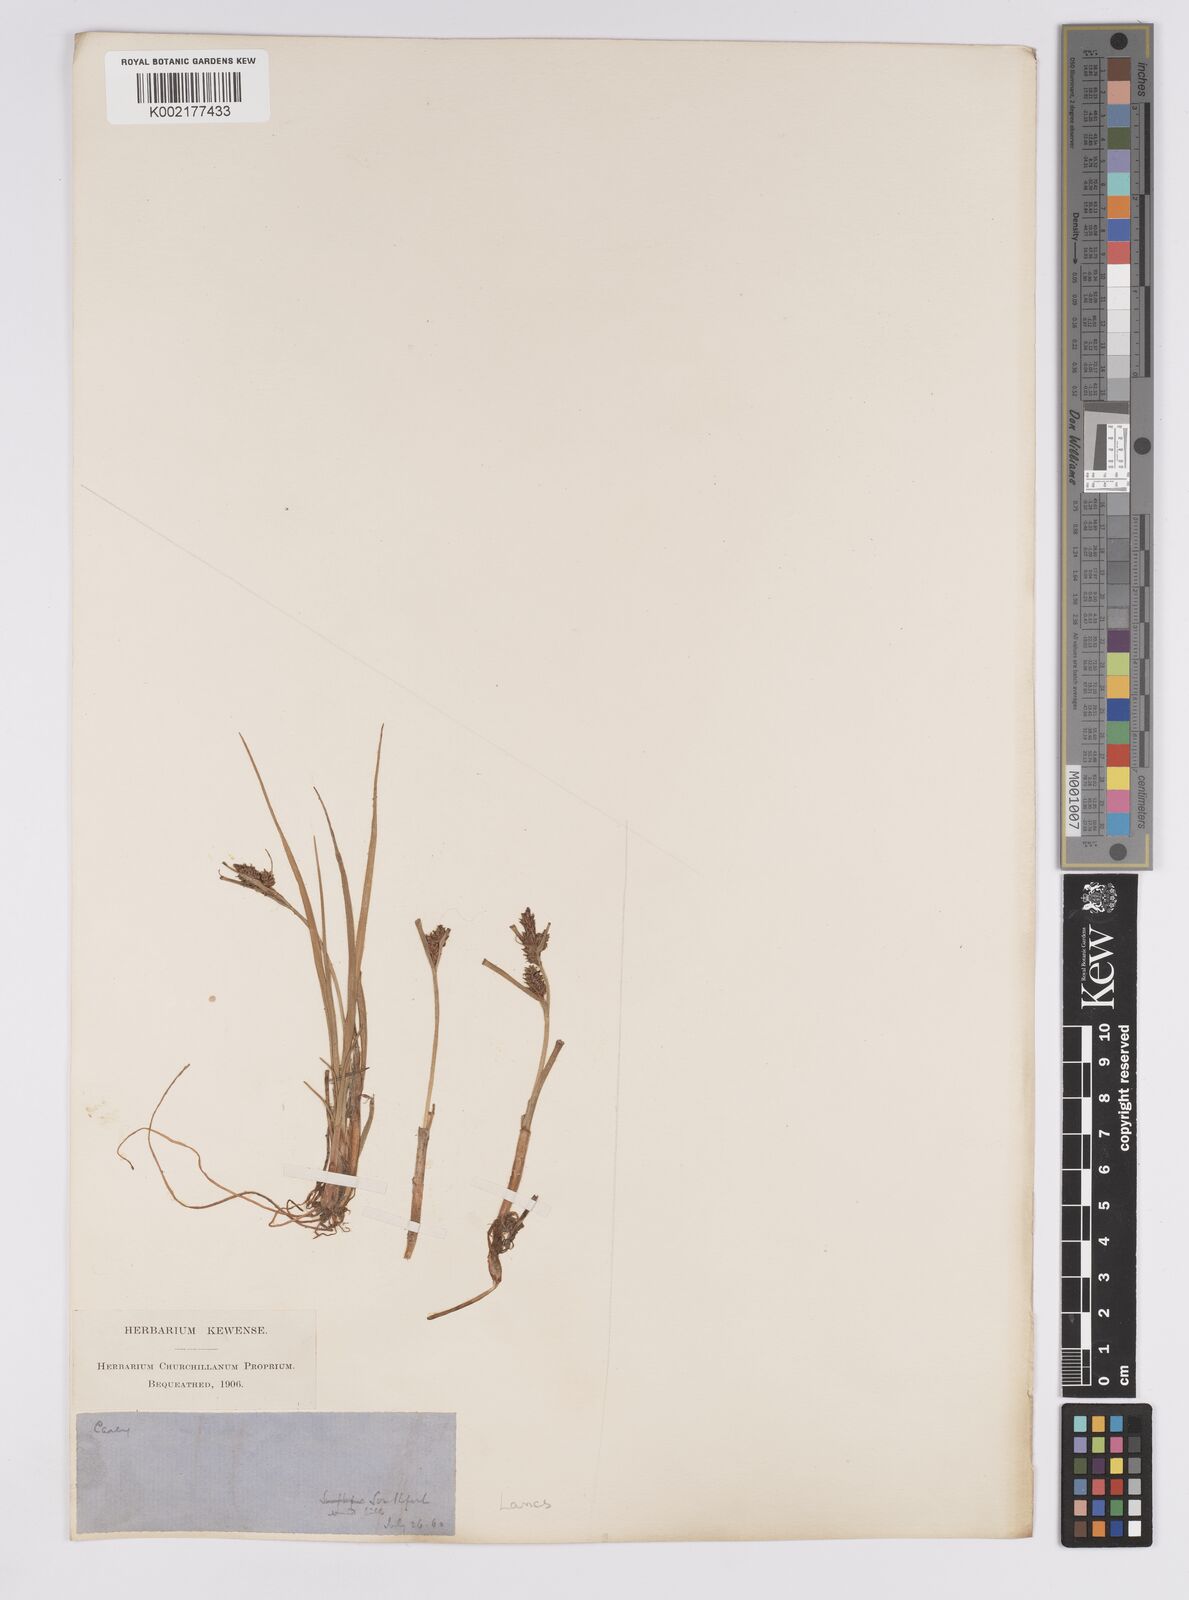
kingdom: Plantae
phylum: Tracheophyta
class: Liliopsida
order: Poales
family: Cyperaceae
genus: Carex
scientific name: Carex extensa
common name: Long-bracted sedge
